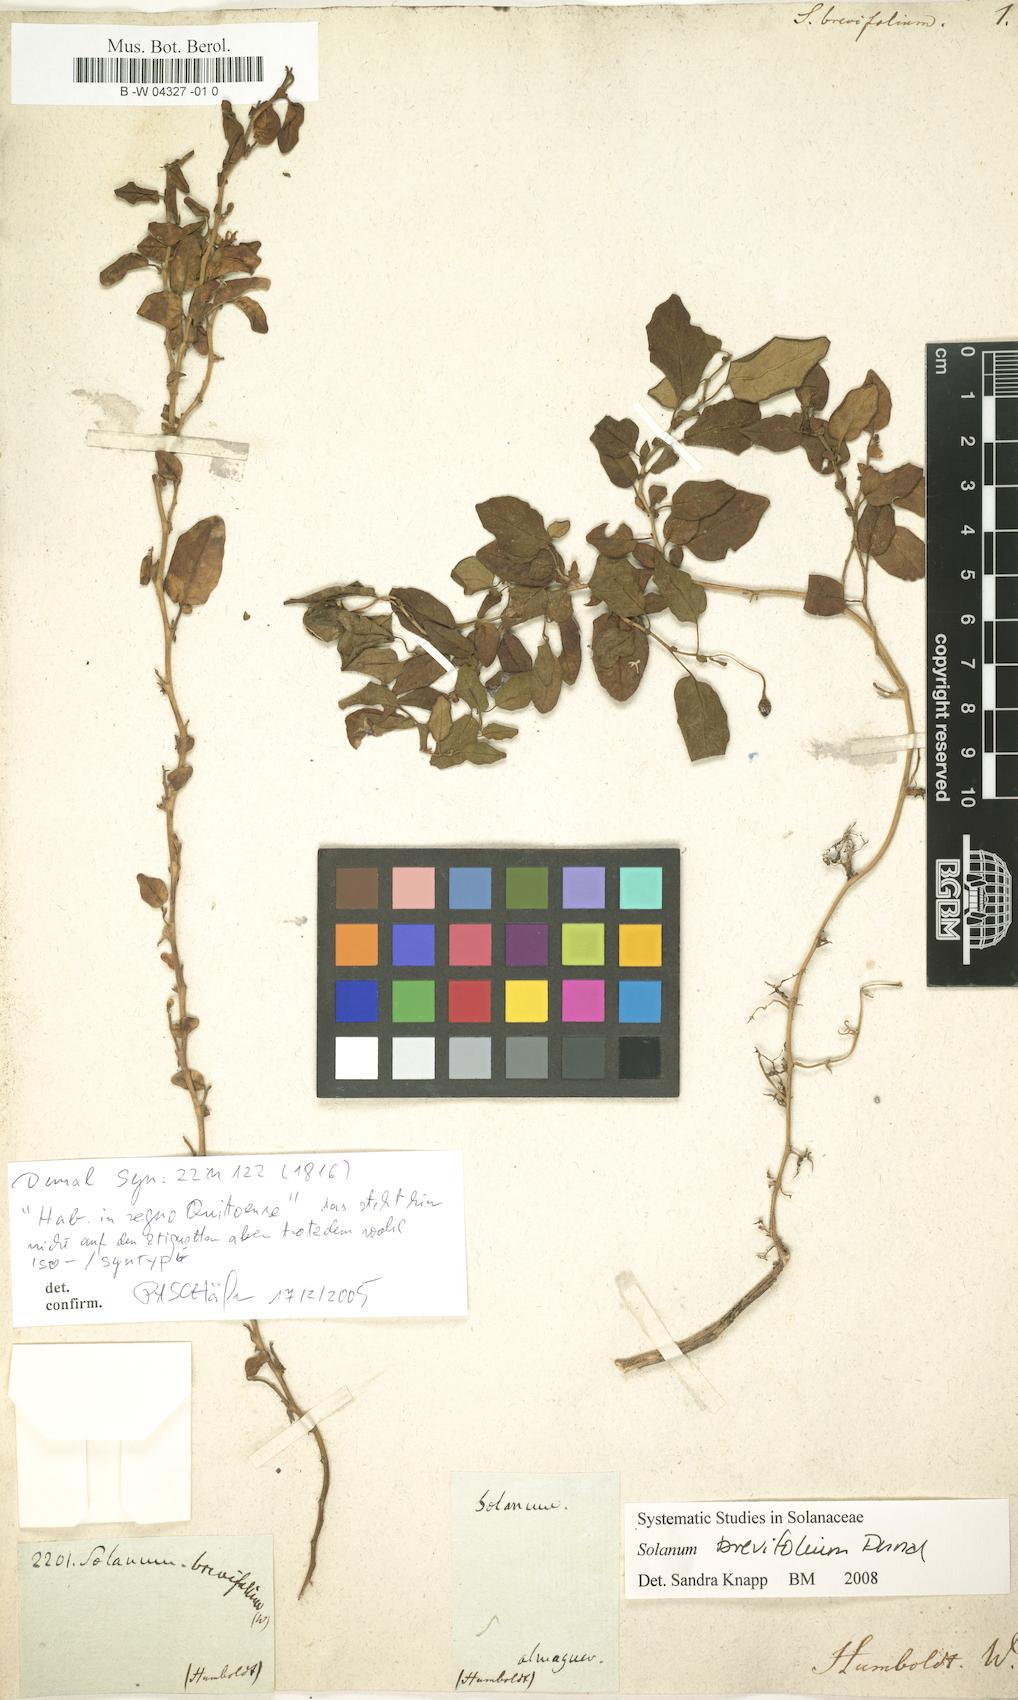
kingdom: Plantae
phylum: Tracheophyta
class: Magnoliopsida
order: Solanales
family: Solanaceae
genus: Solanum
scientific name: Solanum brevifolium
